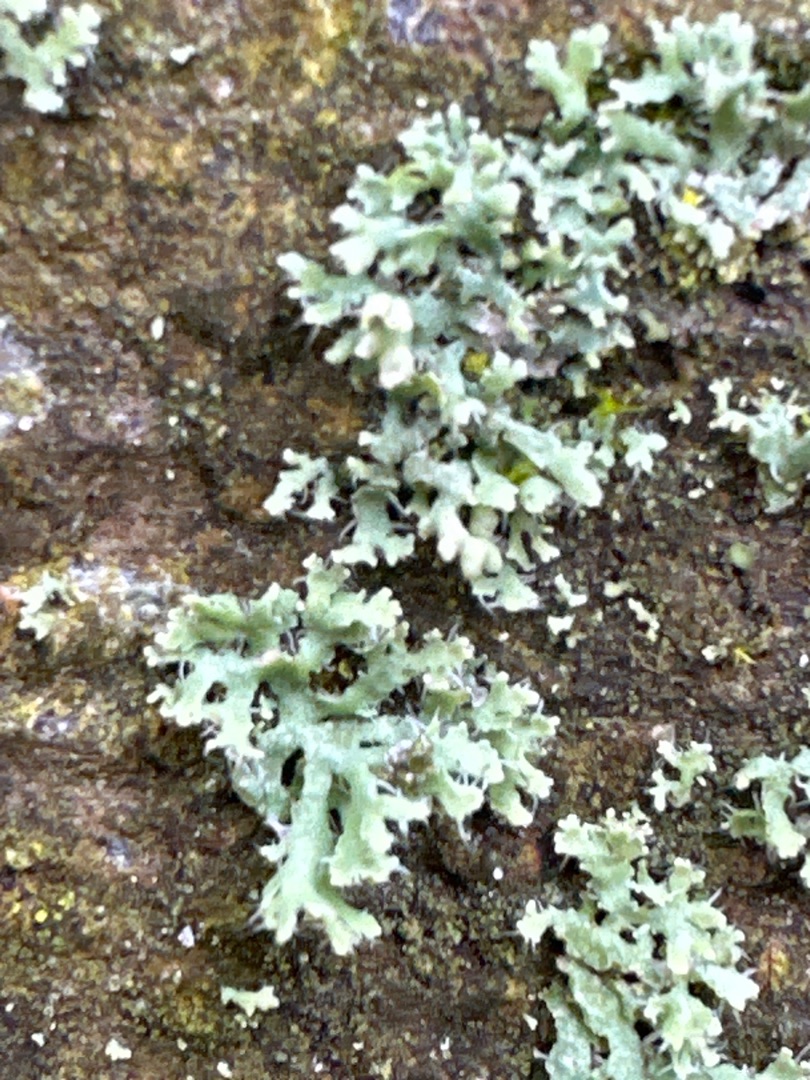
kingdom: Fungi
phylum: Ascomycota
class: Lecanoromycetes
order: Caliciales
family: Physciaceae
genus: Physcia
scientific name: Physcia adscendens
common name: Hætte-rosetlav
